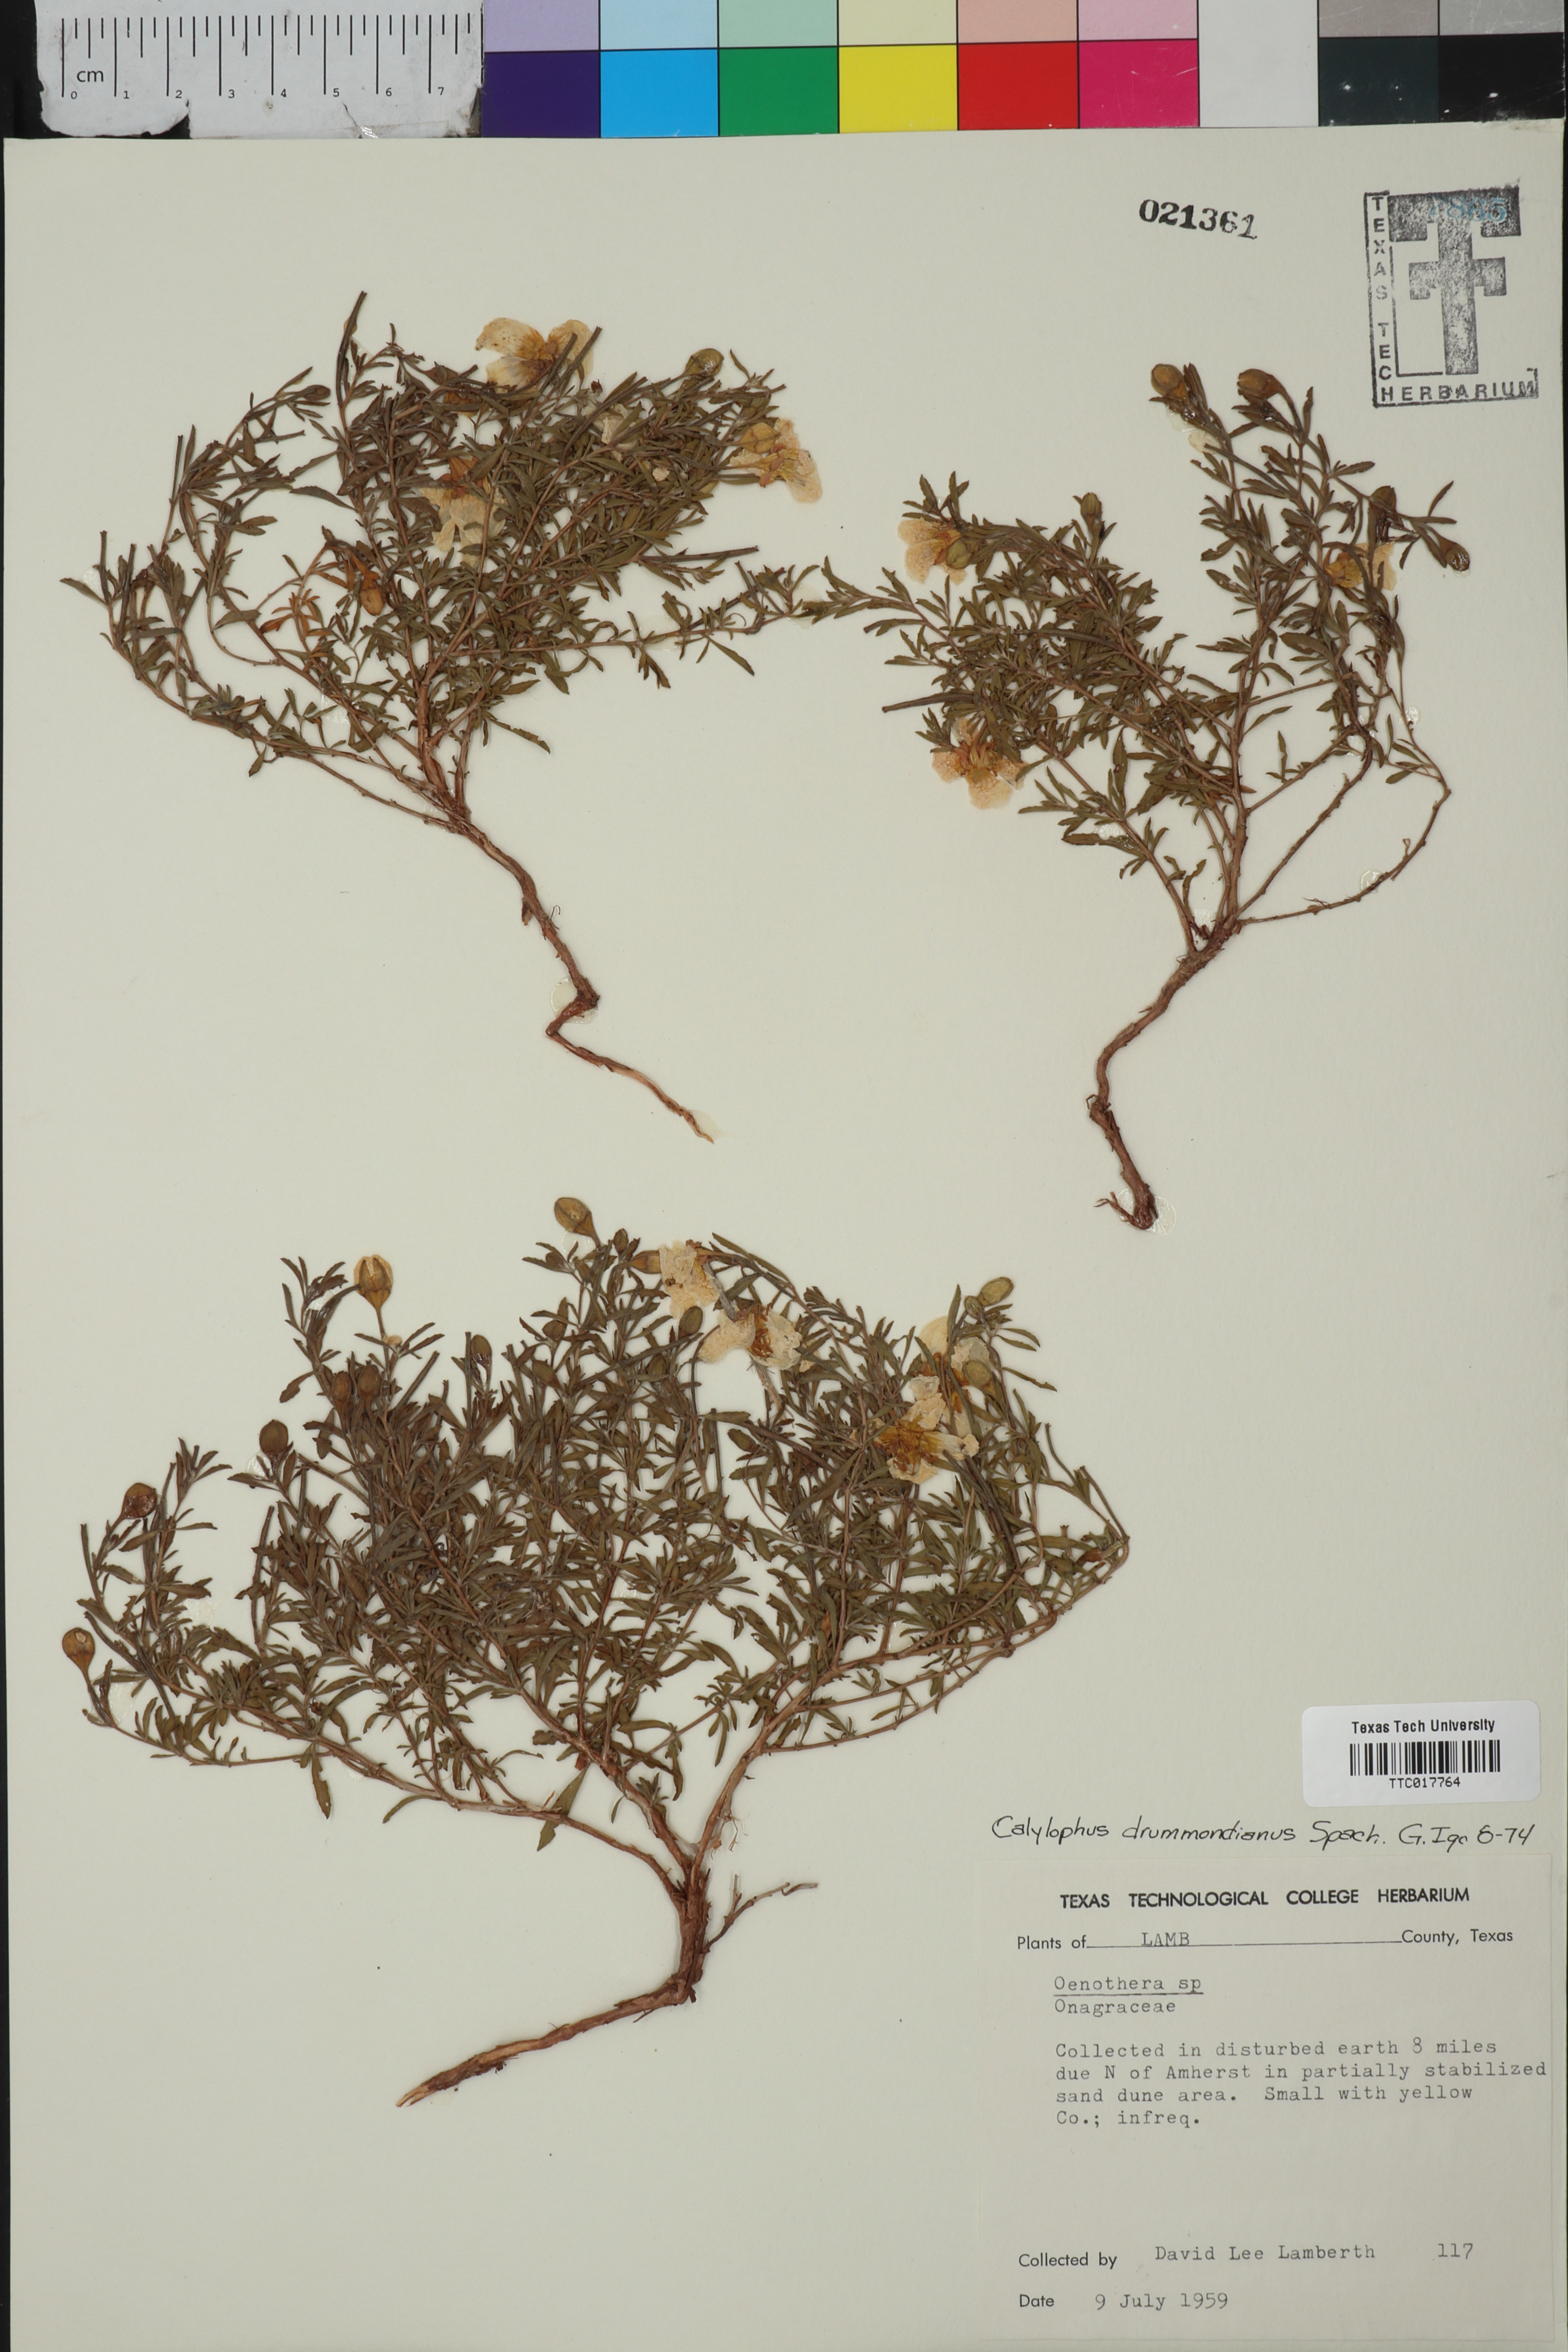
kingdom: Plantae
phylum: Tracheophyta
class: Magnoliopsida
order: Myrtales
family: Onagraceae
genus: Oenothera
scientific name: Oenothera hartwegii
